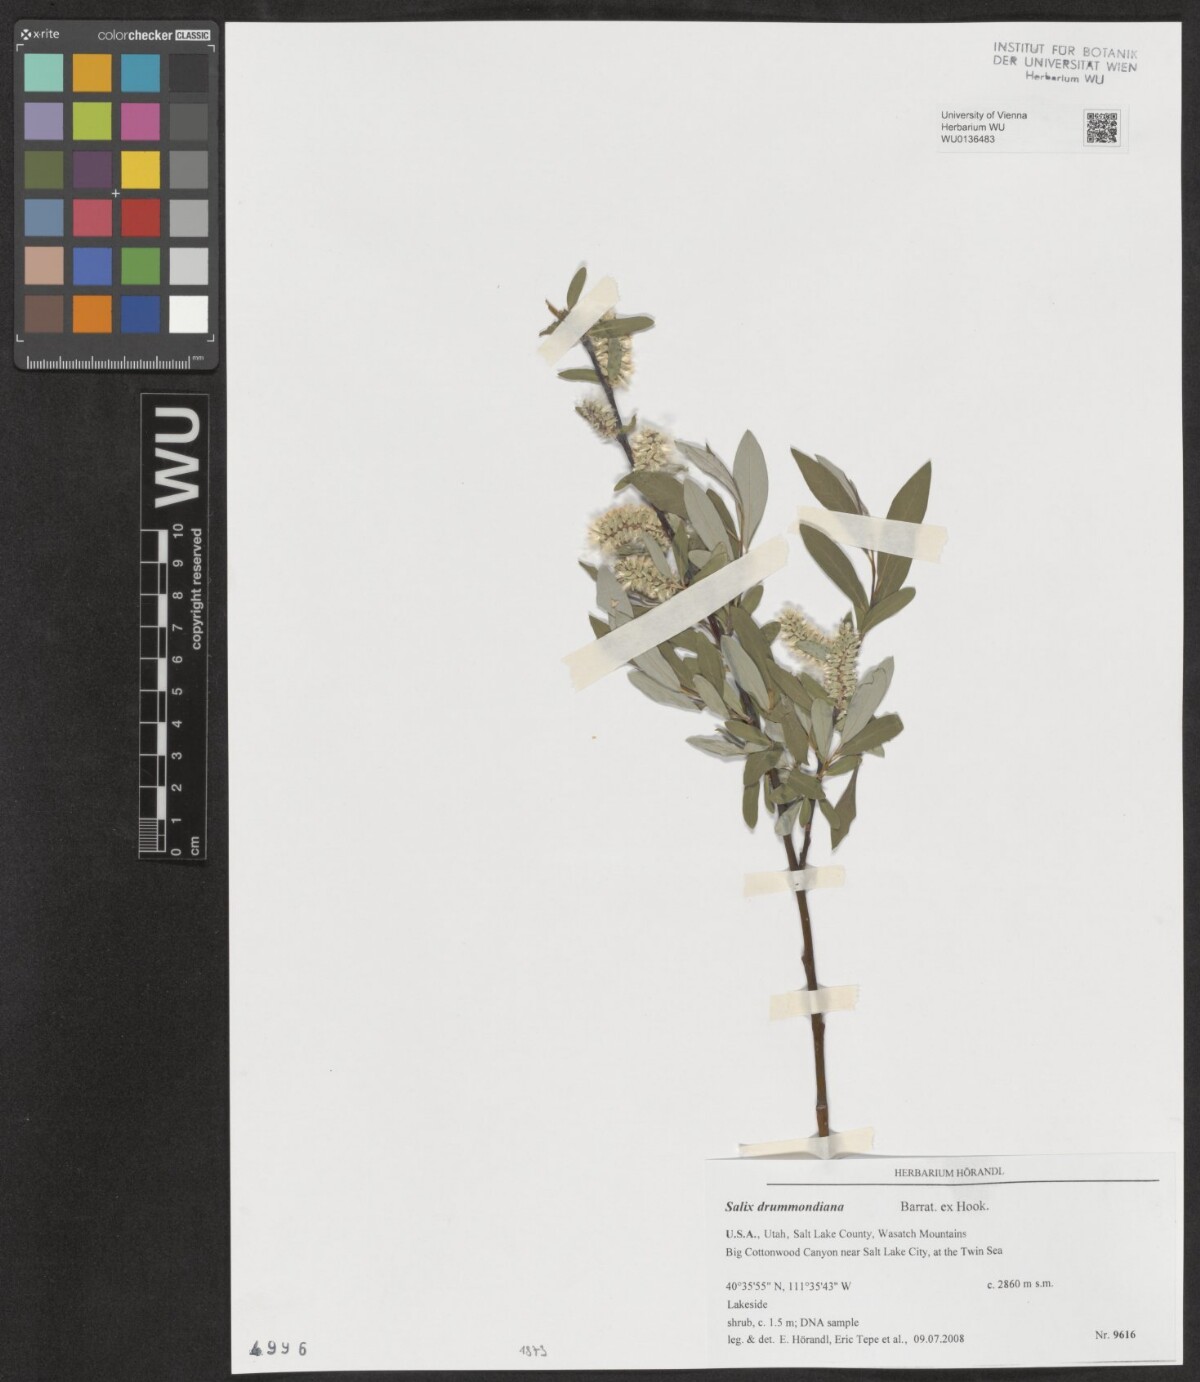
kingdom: Plantae
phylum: Tracheophyta
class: Magnoliopsida
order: Malpighiales
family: Salicaceae
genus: Salix
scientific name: Salix drummondiana
